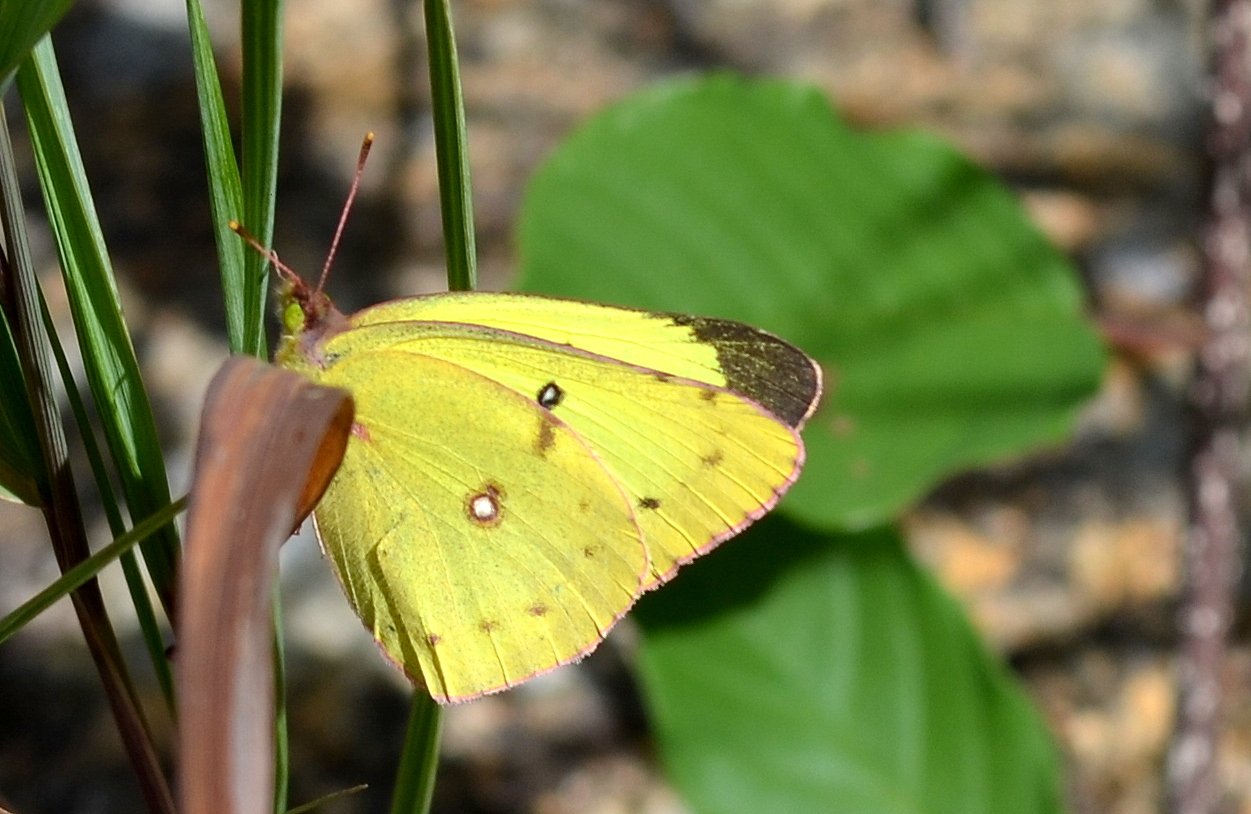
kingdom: Animalia
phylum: Arthropoda
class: Insecta
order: Lepidoptera
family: Pieridae
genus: Colias
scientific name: Colias philodice
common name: Clouded Sulphur
